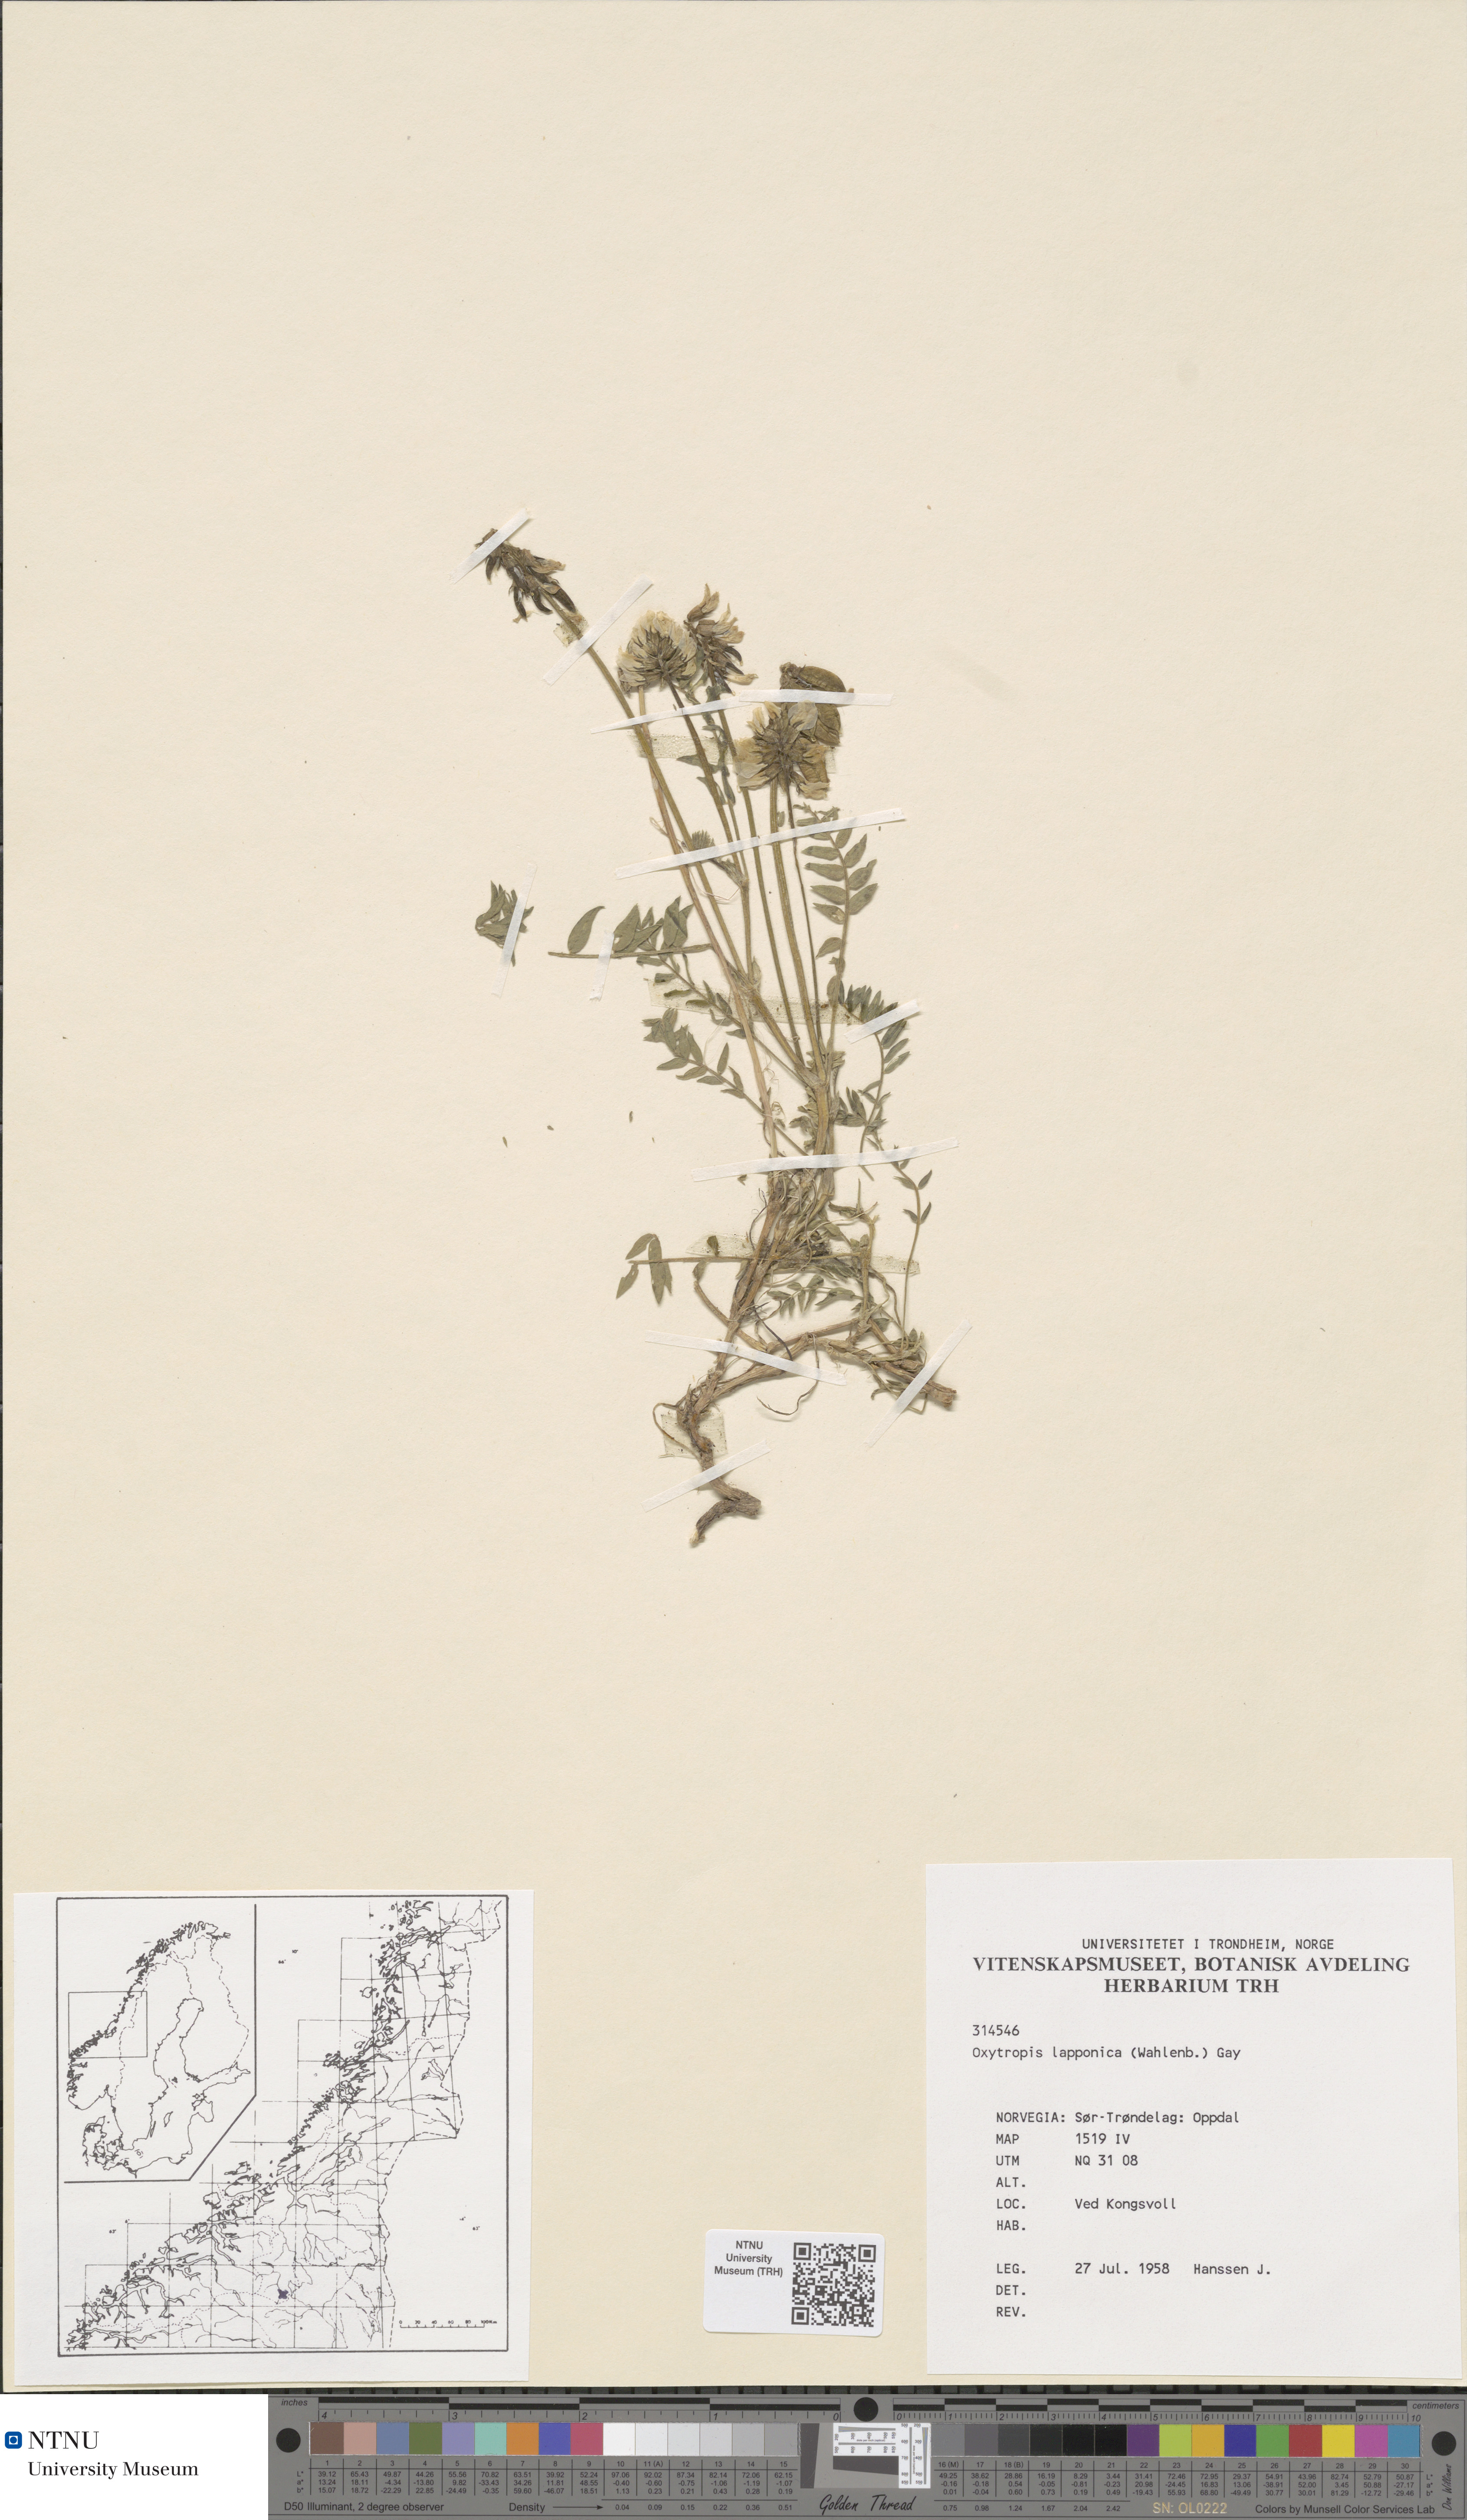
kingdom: Plantae
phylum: Tracheophyta
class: Magnoliopsida
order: Fabales
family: Fabaceae
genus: Oxytropis
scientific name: Oxytropis lapponica
